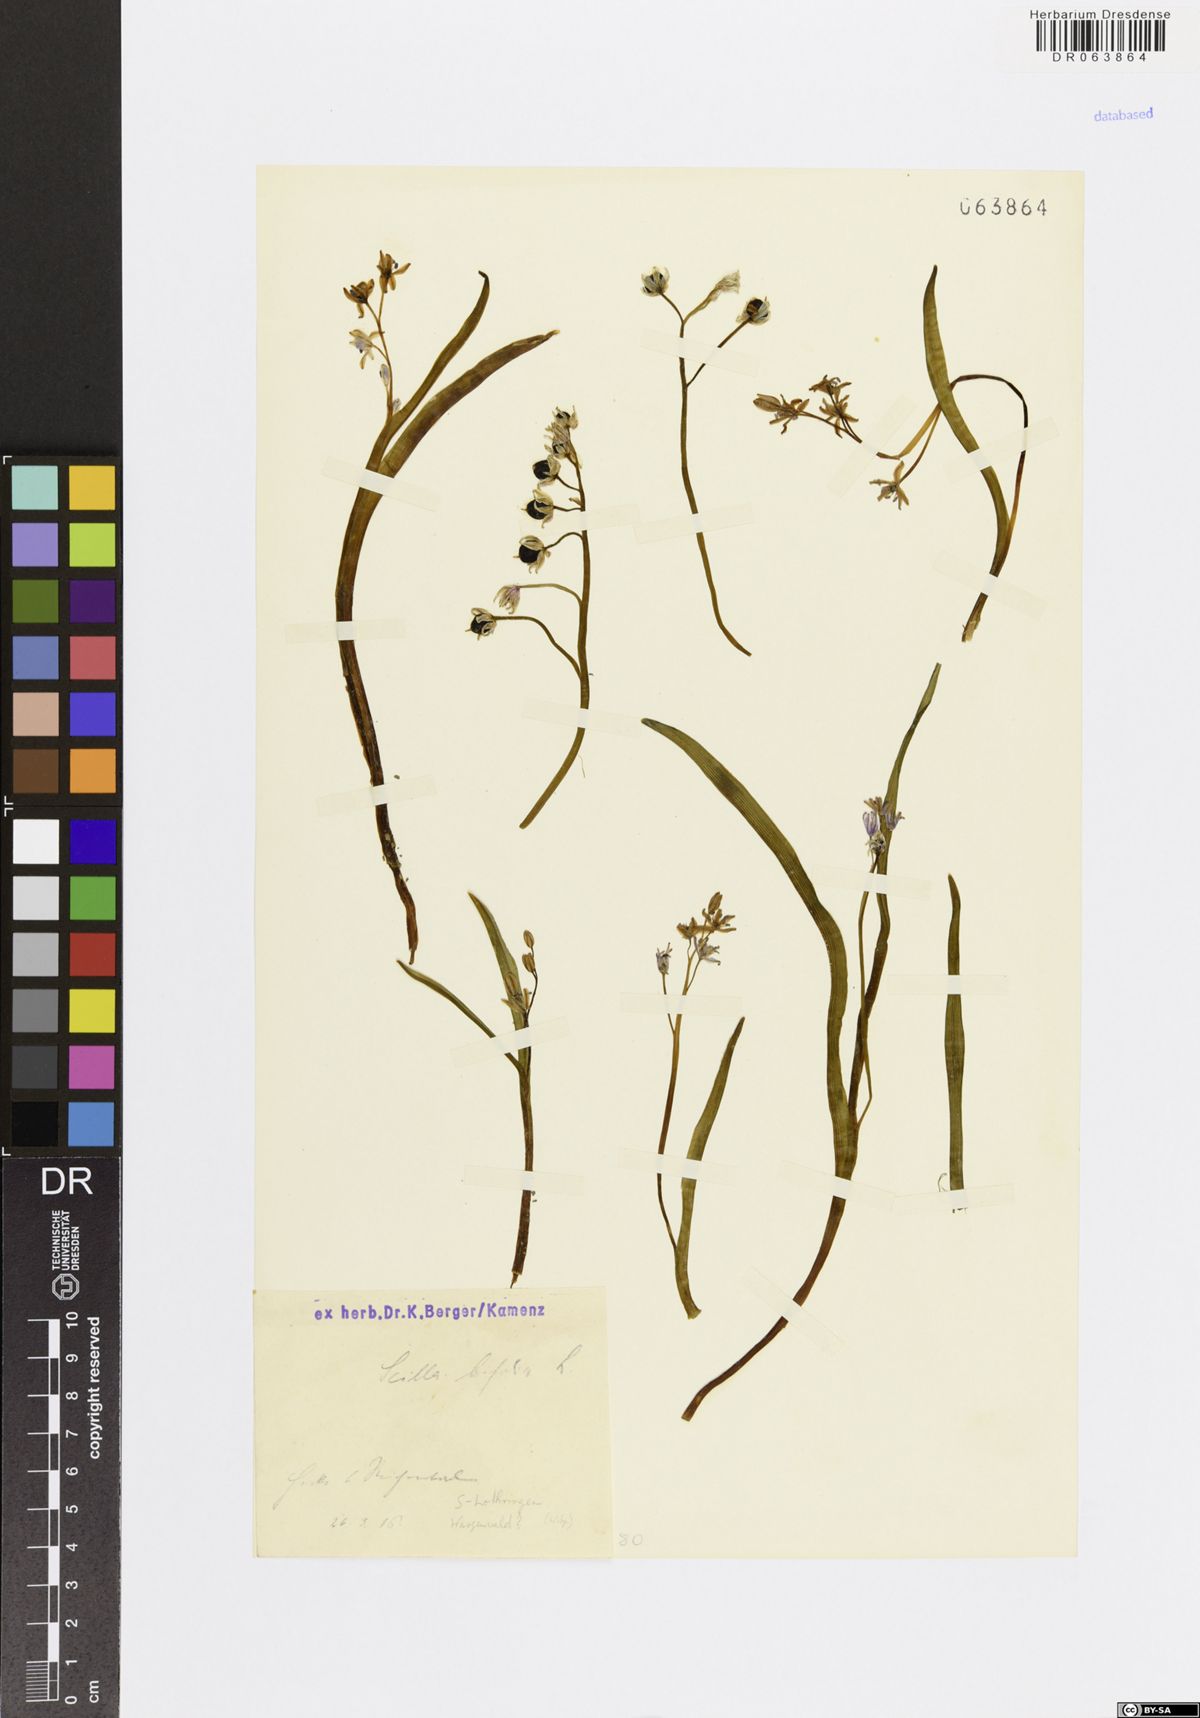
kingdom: Plantae
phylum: Tracheophyta
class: Liliopsida
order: Asparagales
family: Asparagaceae
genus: Scilla
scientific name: Scilla bifolia
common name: Alpine squill
